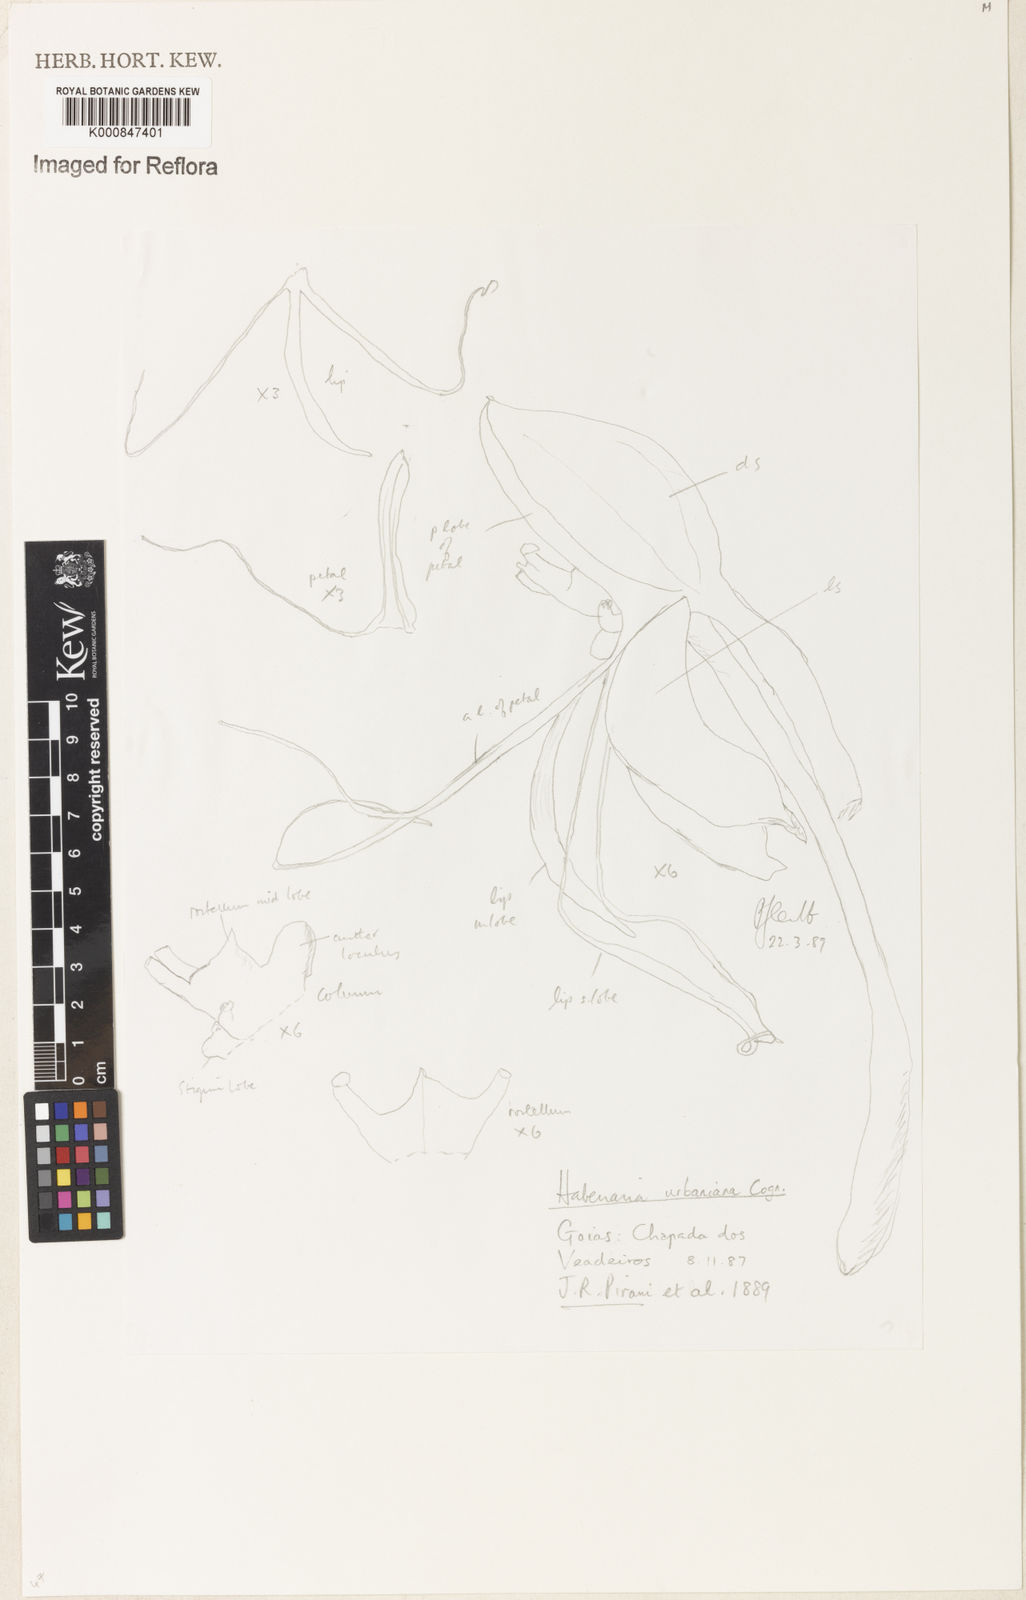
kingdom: Plantae
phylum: Tracheophyta
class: Liliopsida
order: Asparagales
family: Orchidaceae
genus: Habenaria
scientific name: Habenaria urbaniana
